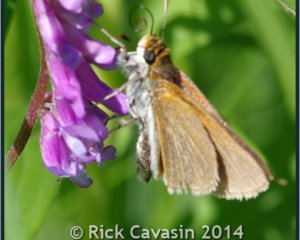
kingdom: Animalia
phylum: Arthropoda
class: Insecta
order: Lepidoptera
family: Hesperiidae
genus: Euphyes
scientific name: Euphyes bimacula
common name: Two-spotted Skipper
